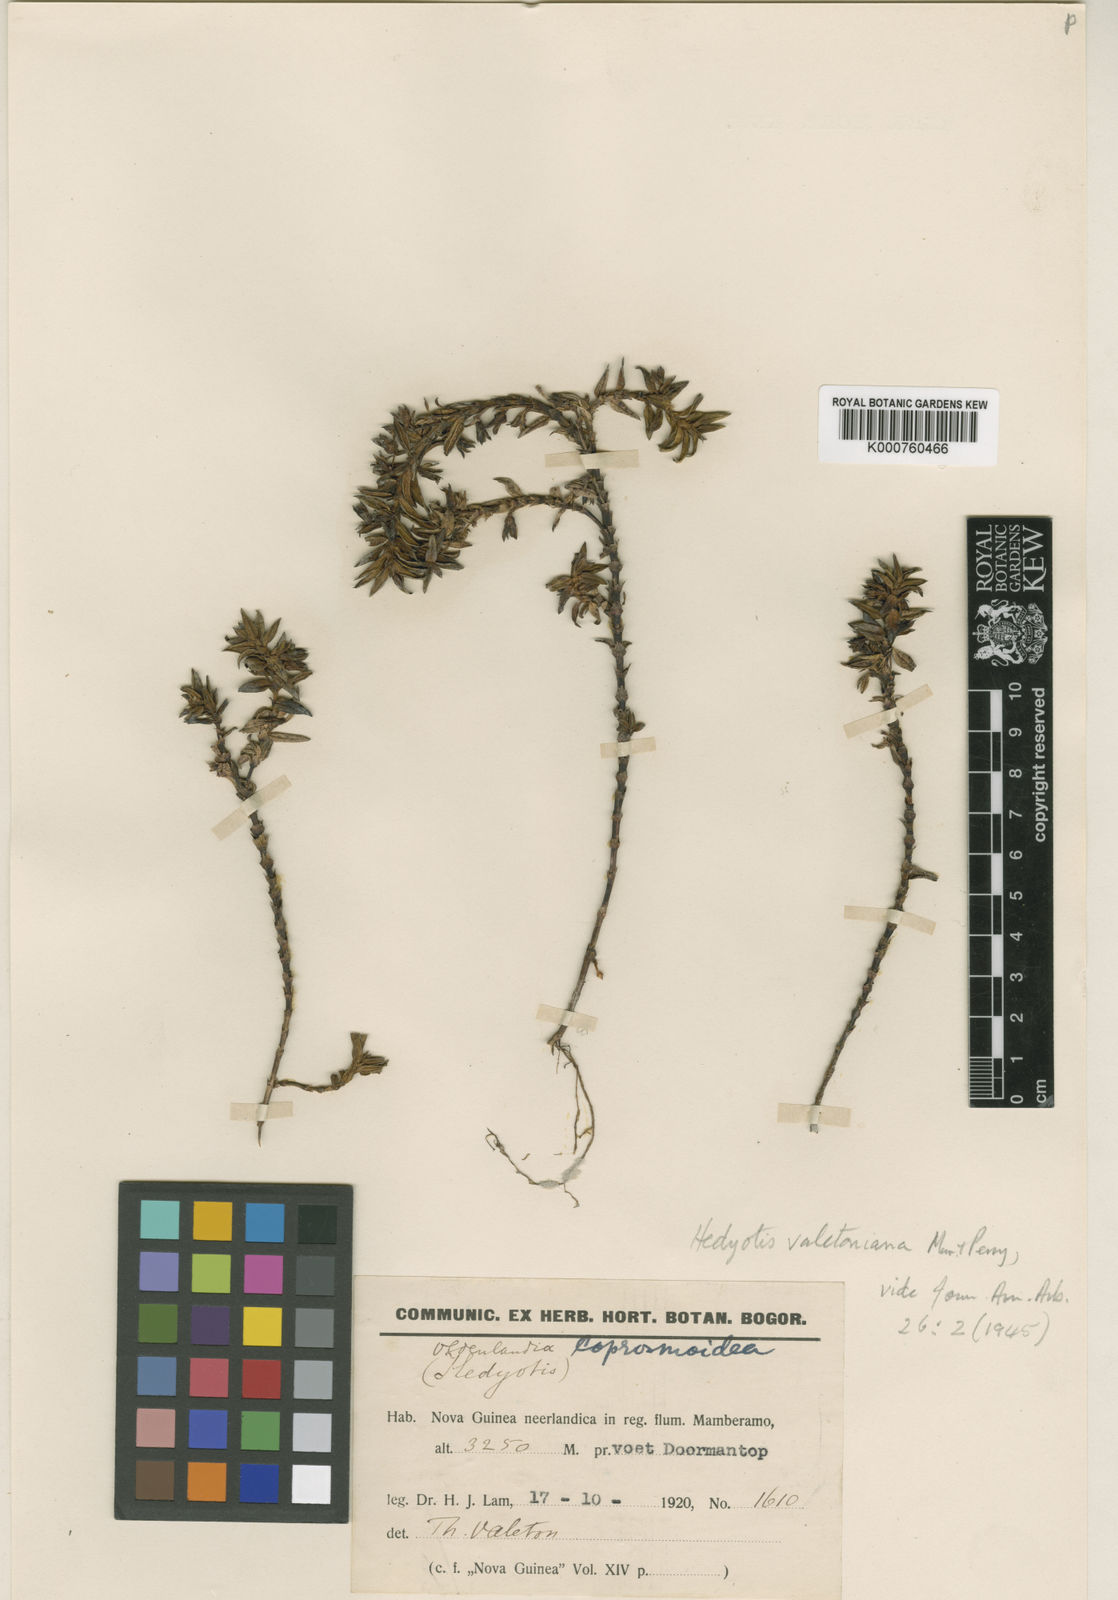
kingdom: Plantae
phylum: Tracheophyta
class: Magnoliopsida
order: Gentianales
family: Rubiaceae
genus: Hedyotis
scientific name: Hedyotis valetoniana
